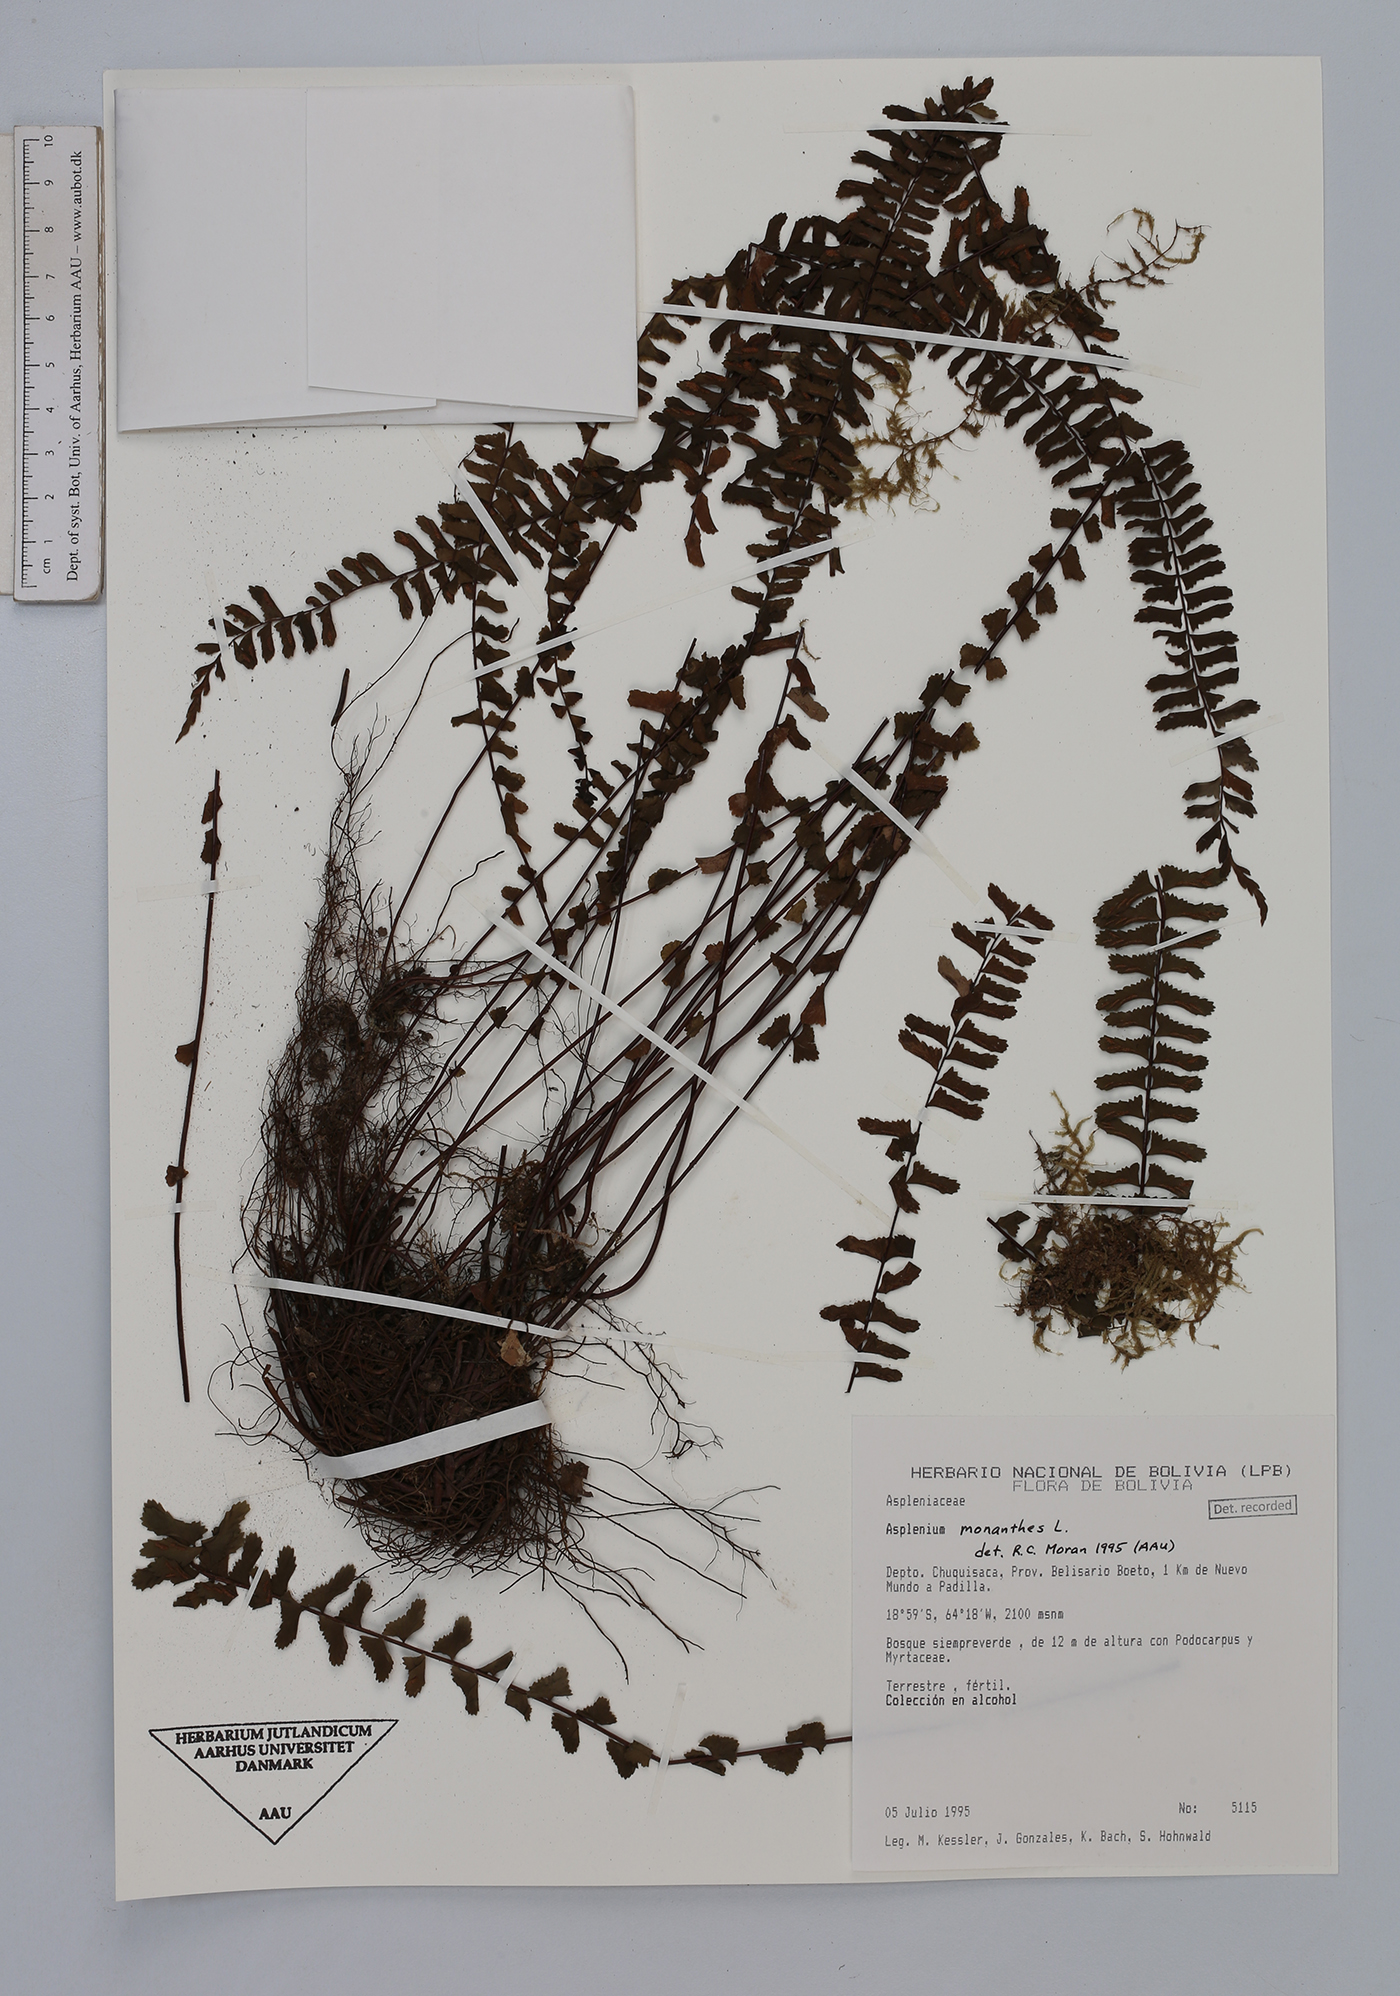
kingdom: Plantae
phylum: Tracheophyta
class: Polypodiopsida
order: Polypodiales
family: Aspleniaceae
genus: Asplenium
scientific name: Asplenium monanthes
